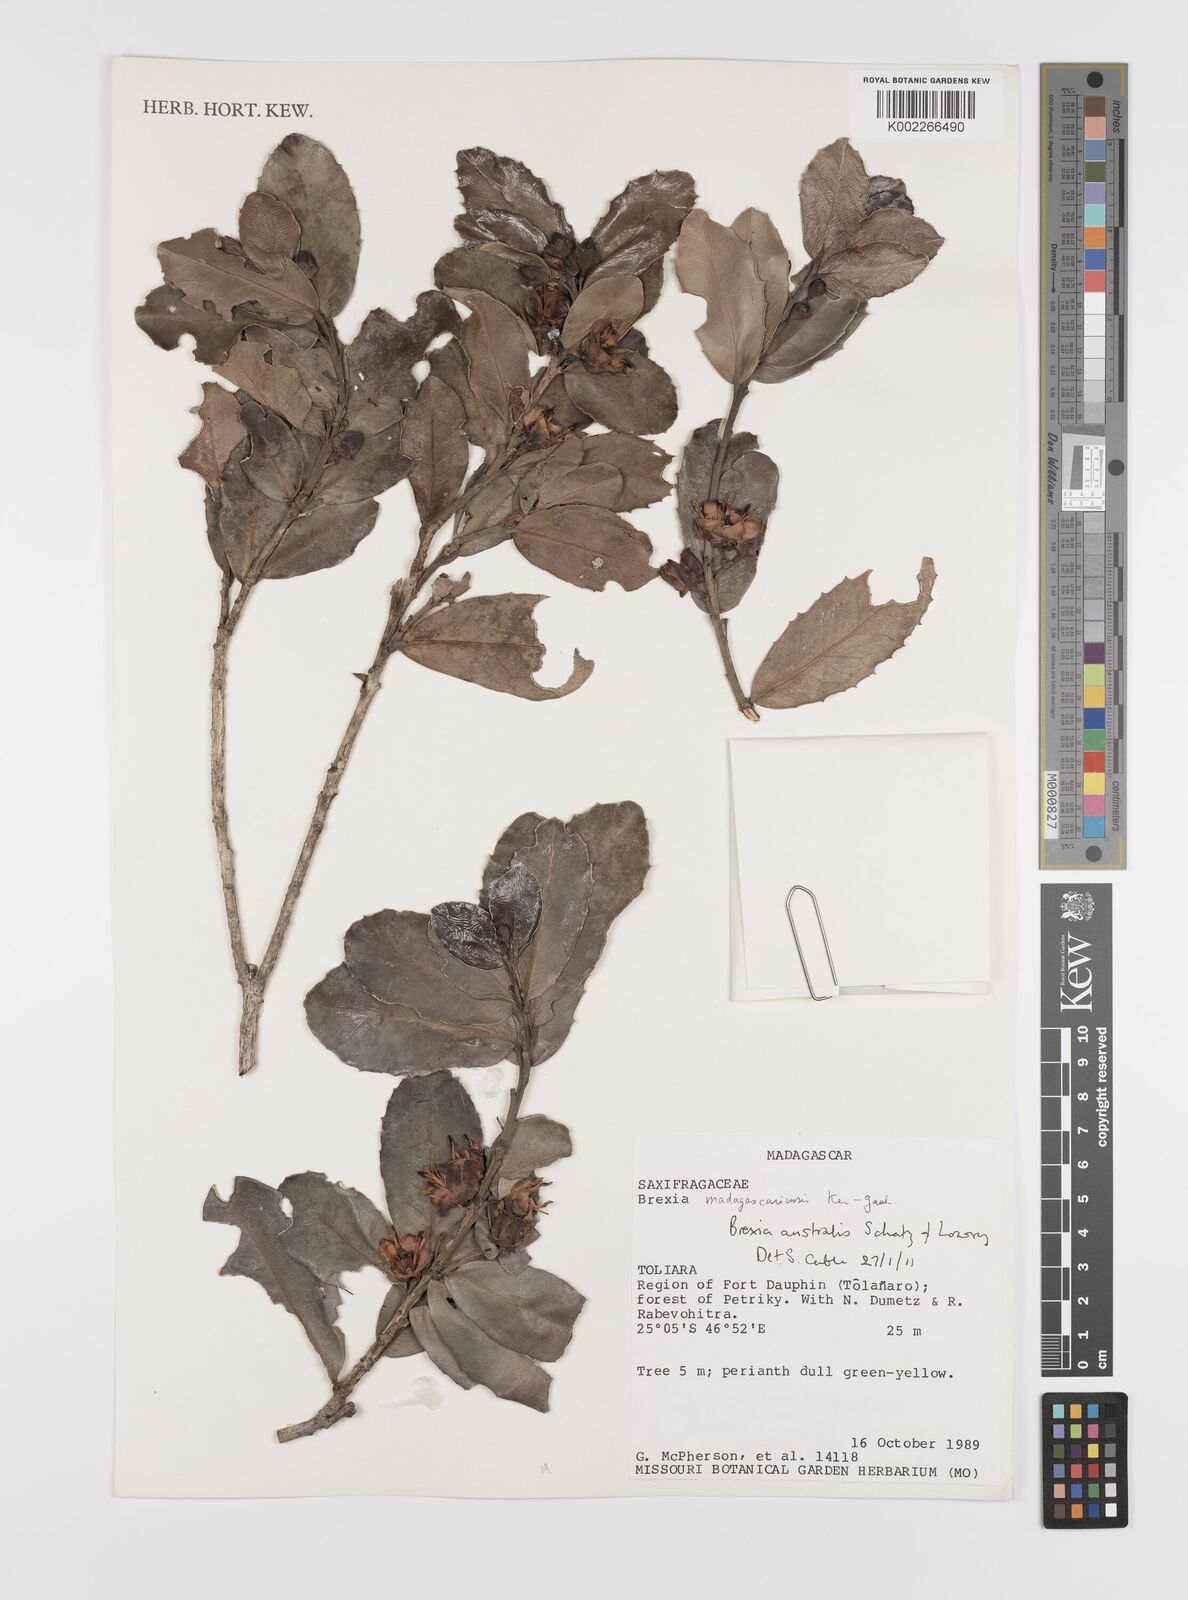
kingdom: Plantae
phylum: Tracheophyta
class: Magnoliopsida
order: Celastrales
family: Celastraceae
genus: Brexia
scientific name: Brexia australis
